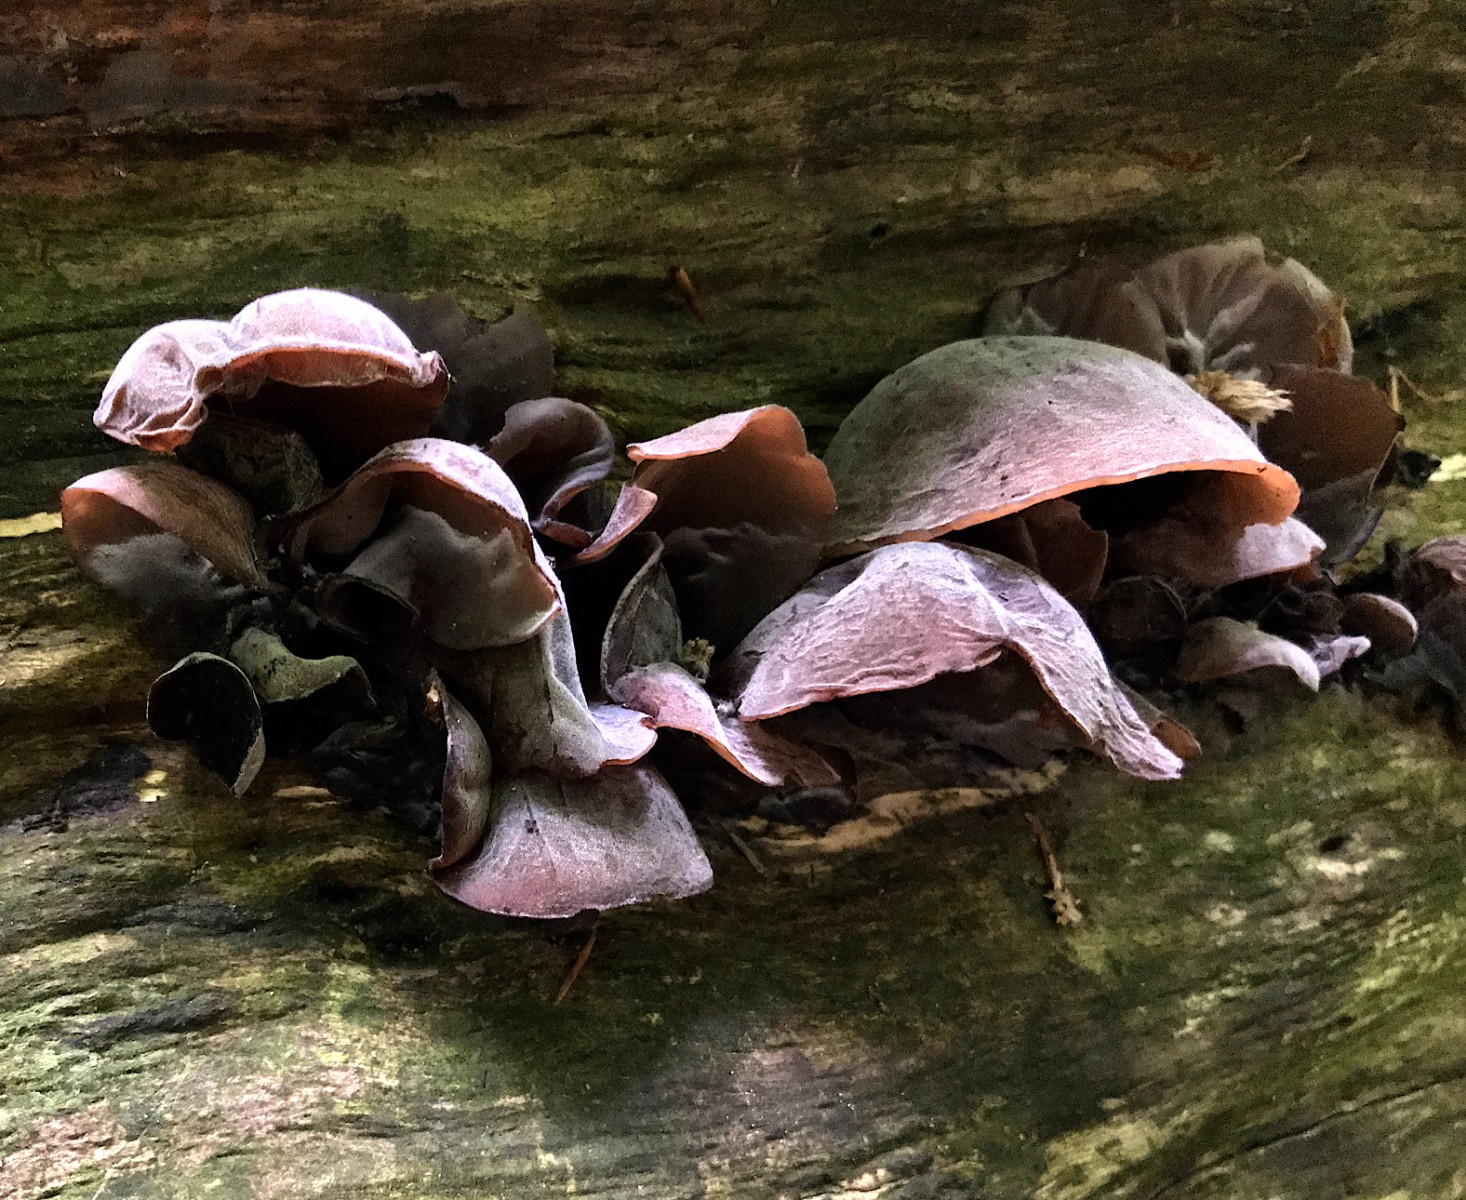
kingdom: Fungi
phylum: Basidiomycota
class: Agaricomycetes
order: Auriculariales
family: Auriculariaceae
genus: Auricularia
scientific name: Auricularia auricula-judae
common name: almindelig judasøre
